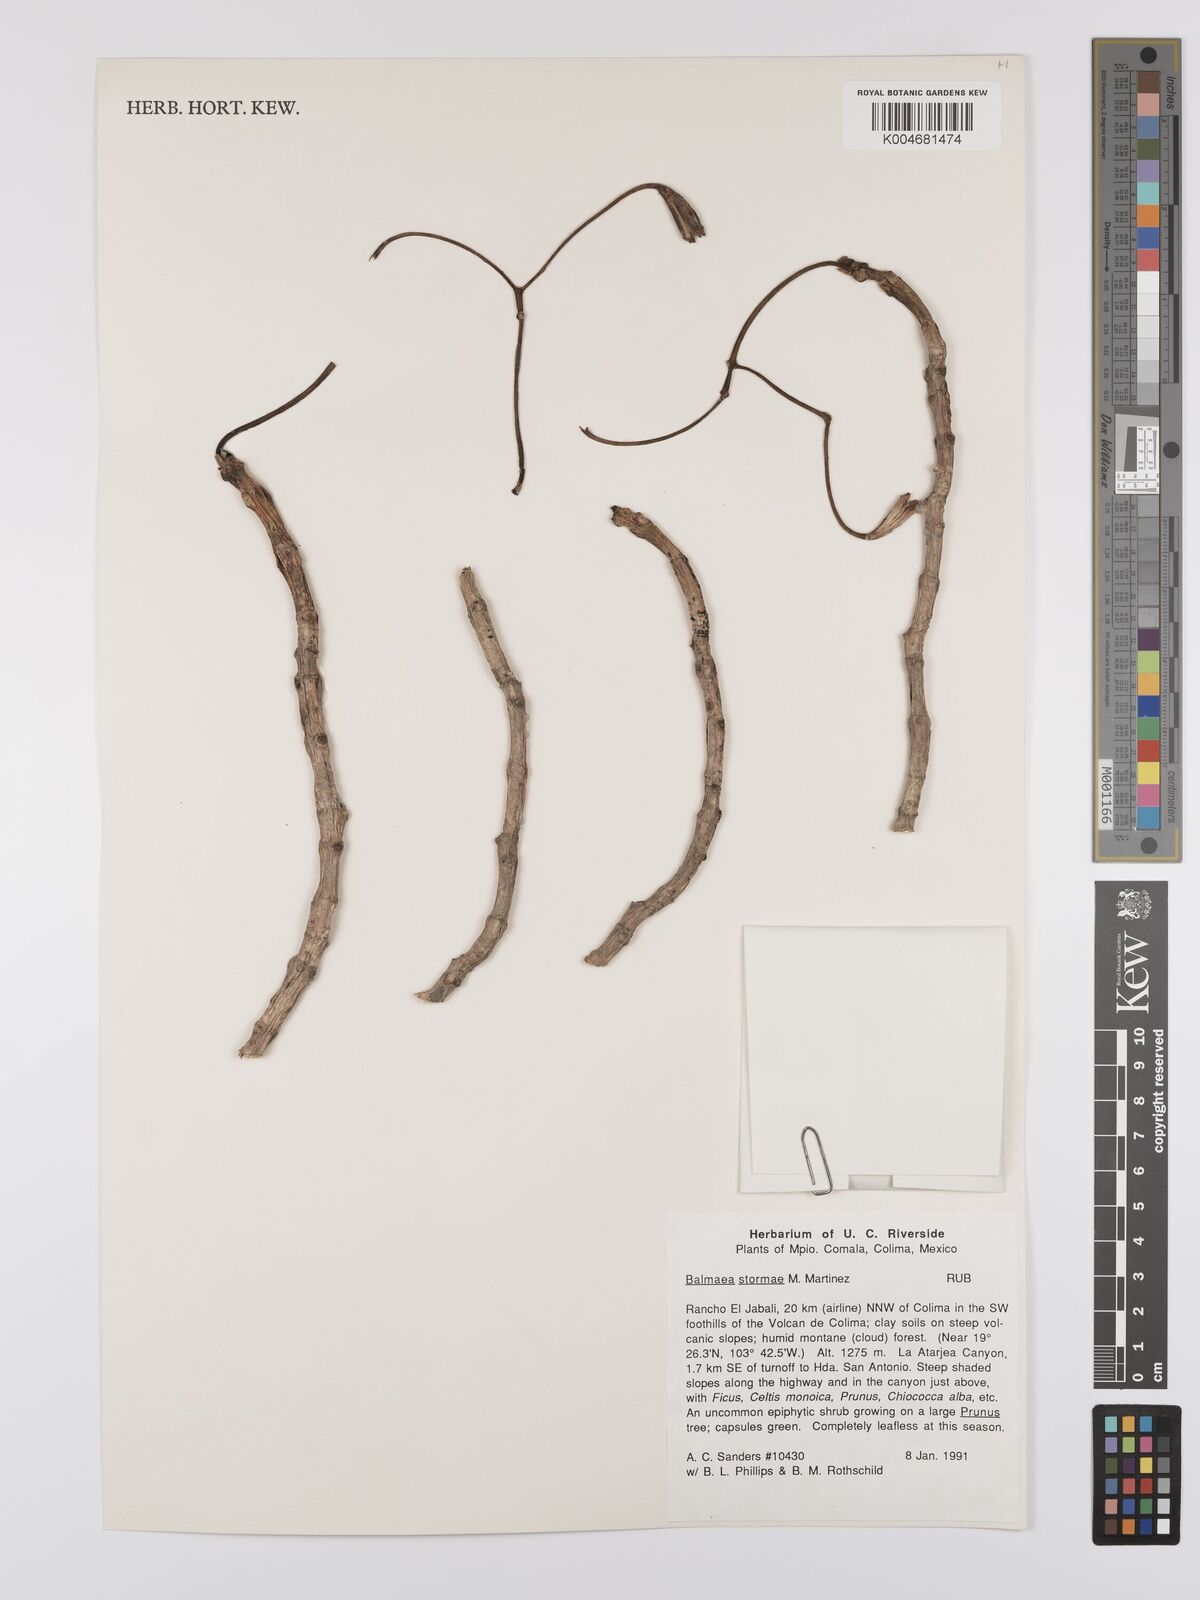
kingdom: Plantae
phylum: Tracheophyta
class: Magnoliopsida
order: Gentianales
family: Rubiaceae
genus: Balmea
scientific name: Balmea stormiae
